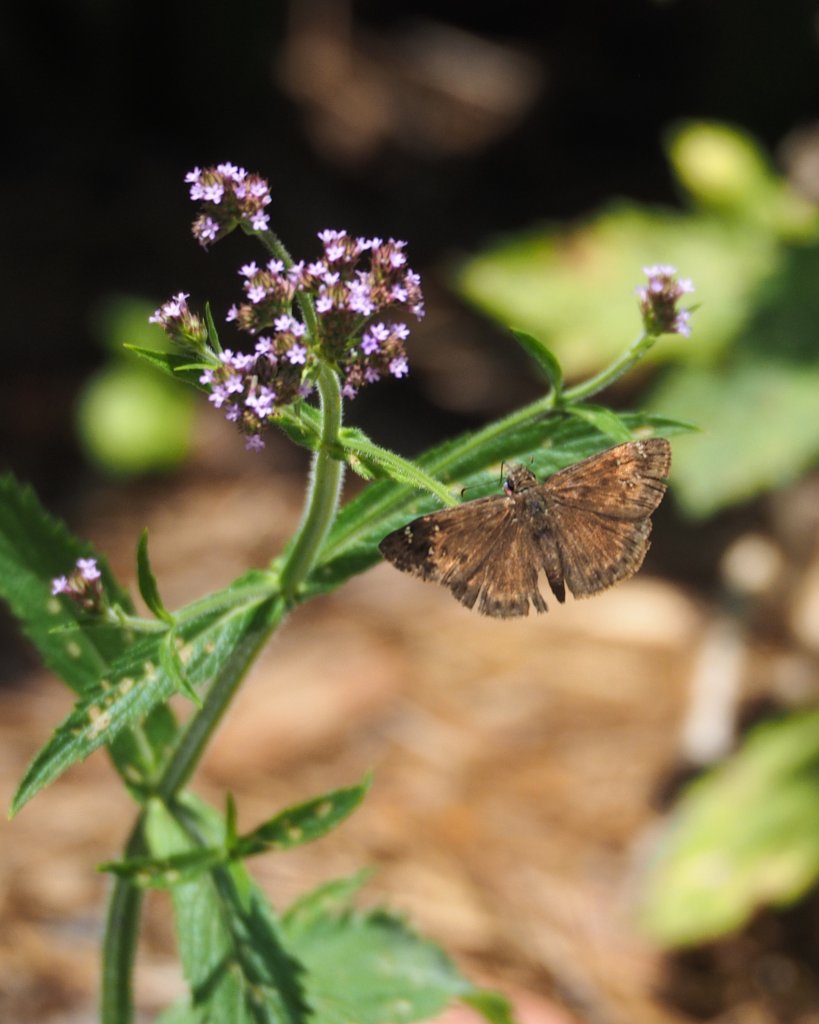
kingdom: Animalia
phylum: Arthropoda
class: Insecta
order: Lepidoptera
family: Hesperiidae
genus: Gesta
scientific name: Gesta
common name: Horace's Duskywing
